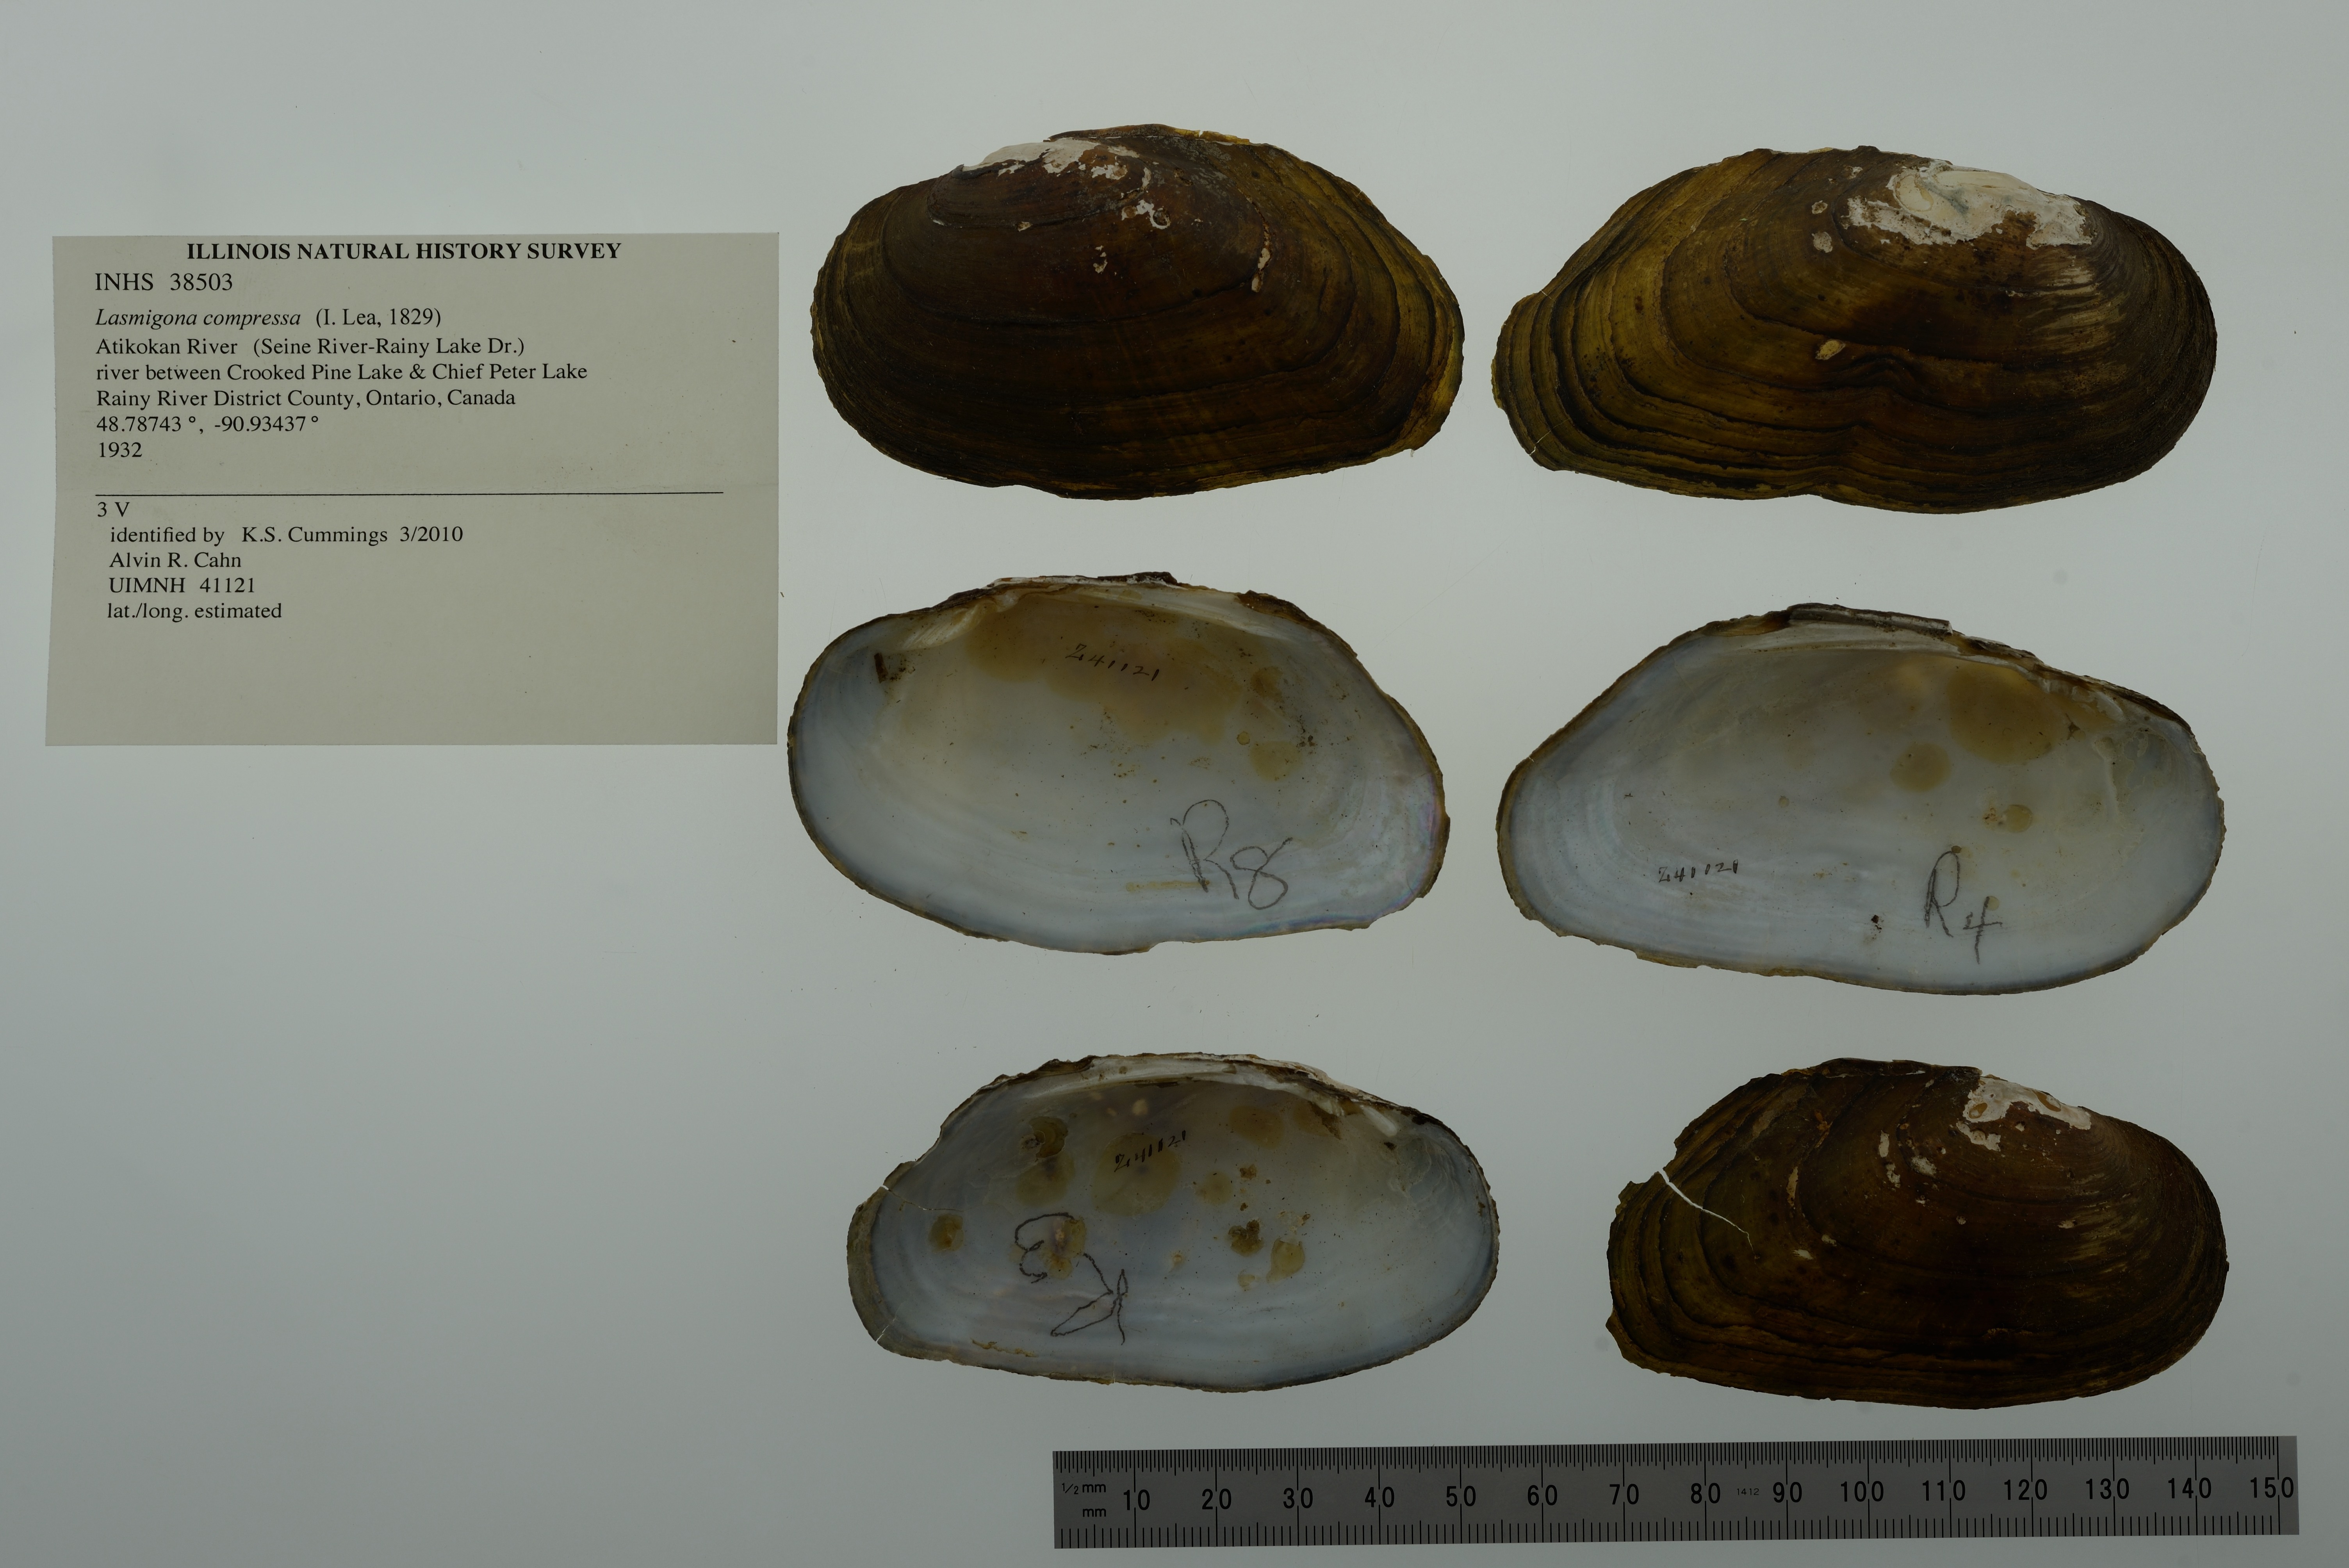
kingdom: Animalia
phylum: Mollusca
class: Bivalvia
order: Unionida
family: Unionidae
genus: Lasmigona
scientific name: Lasmigona compressa
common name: Creek heelsplitter
